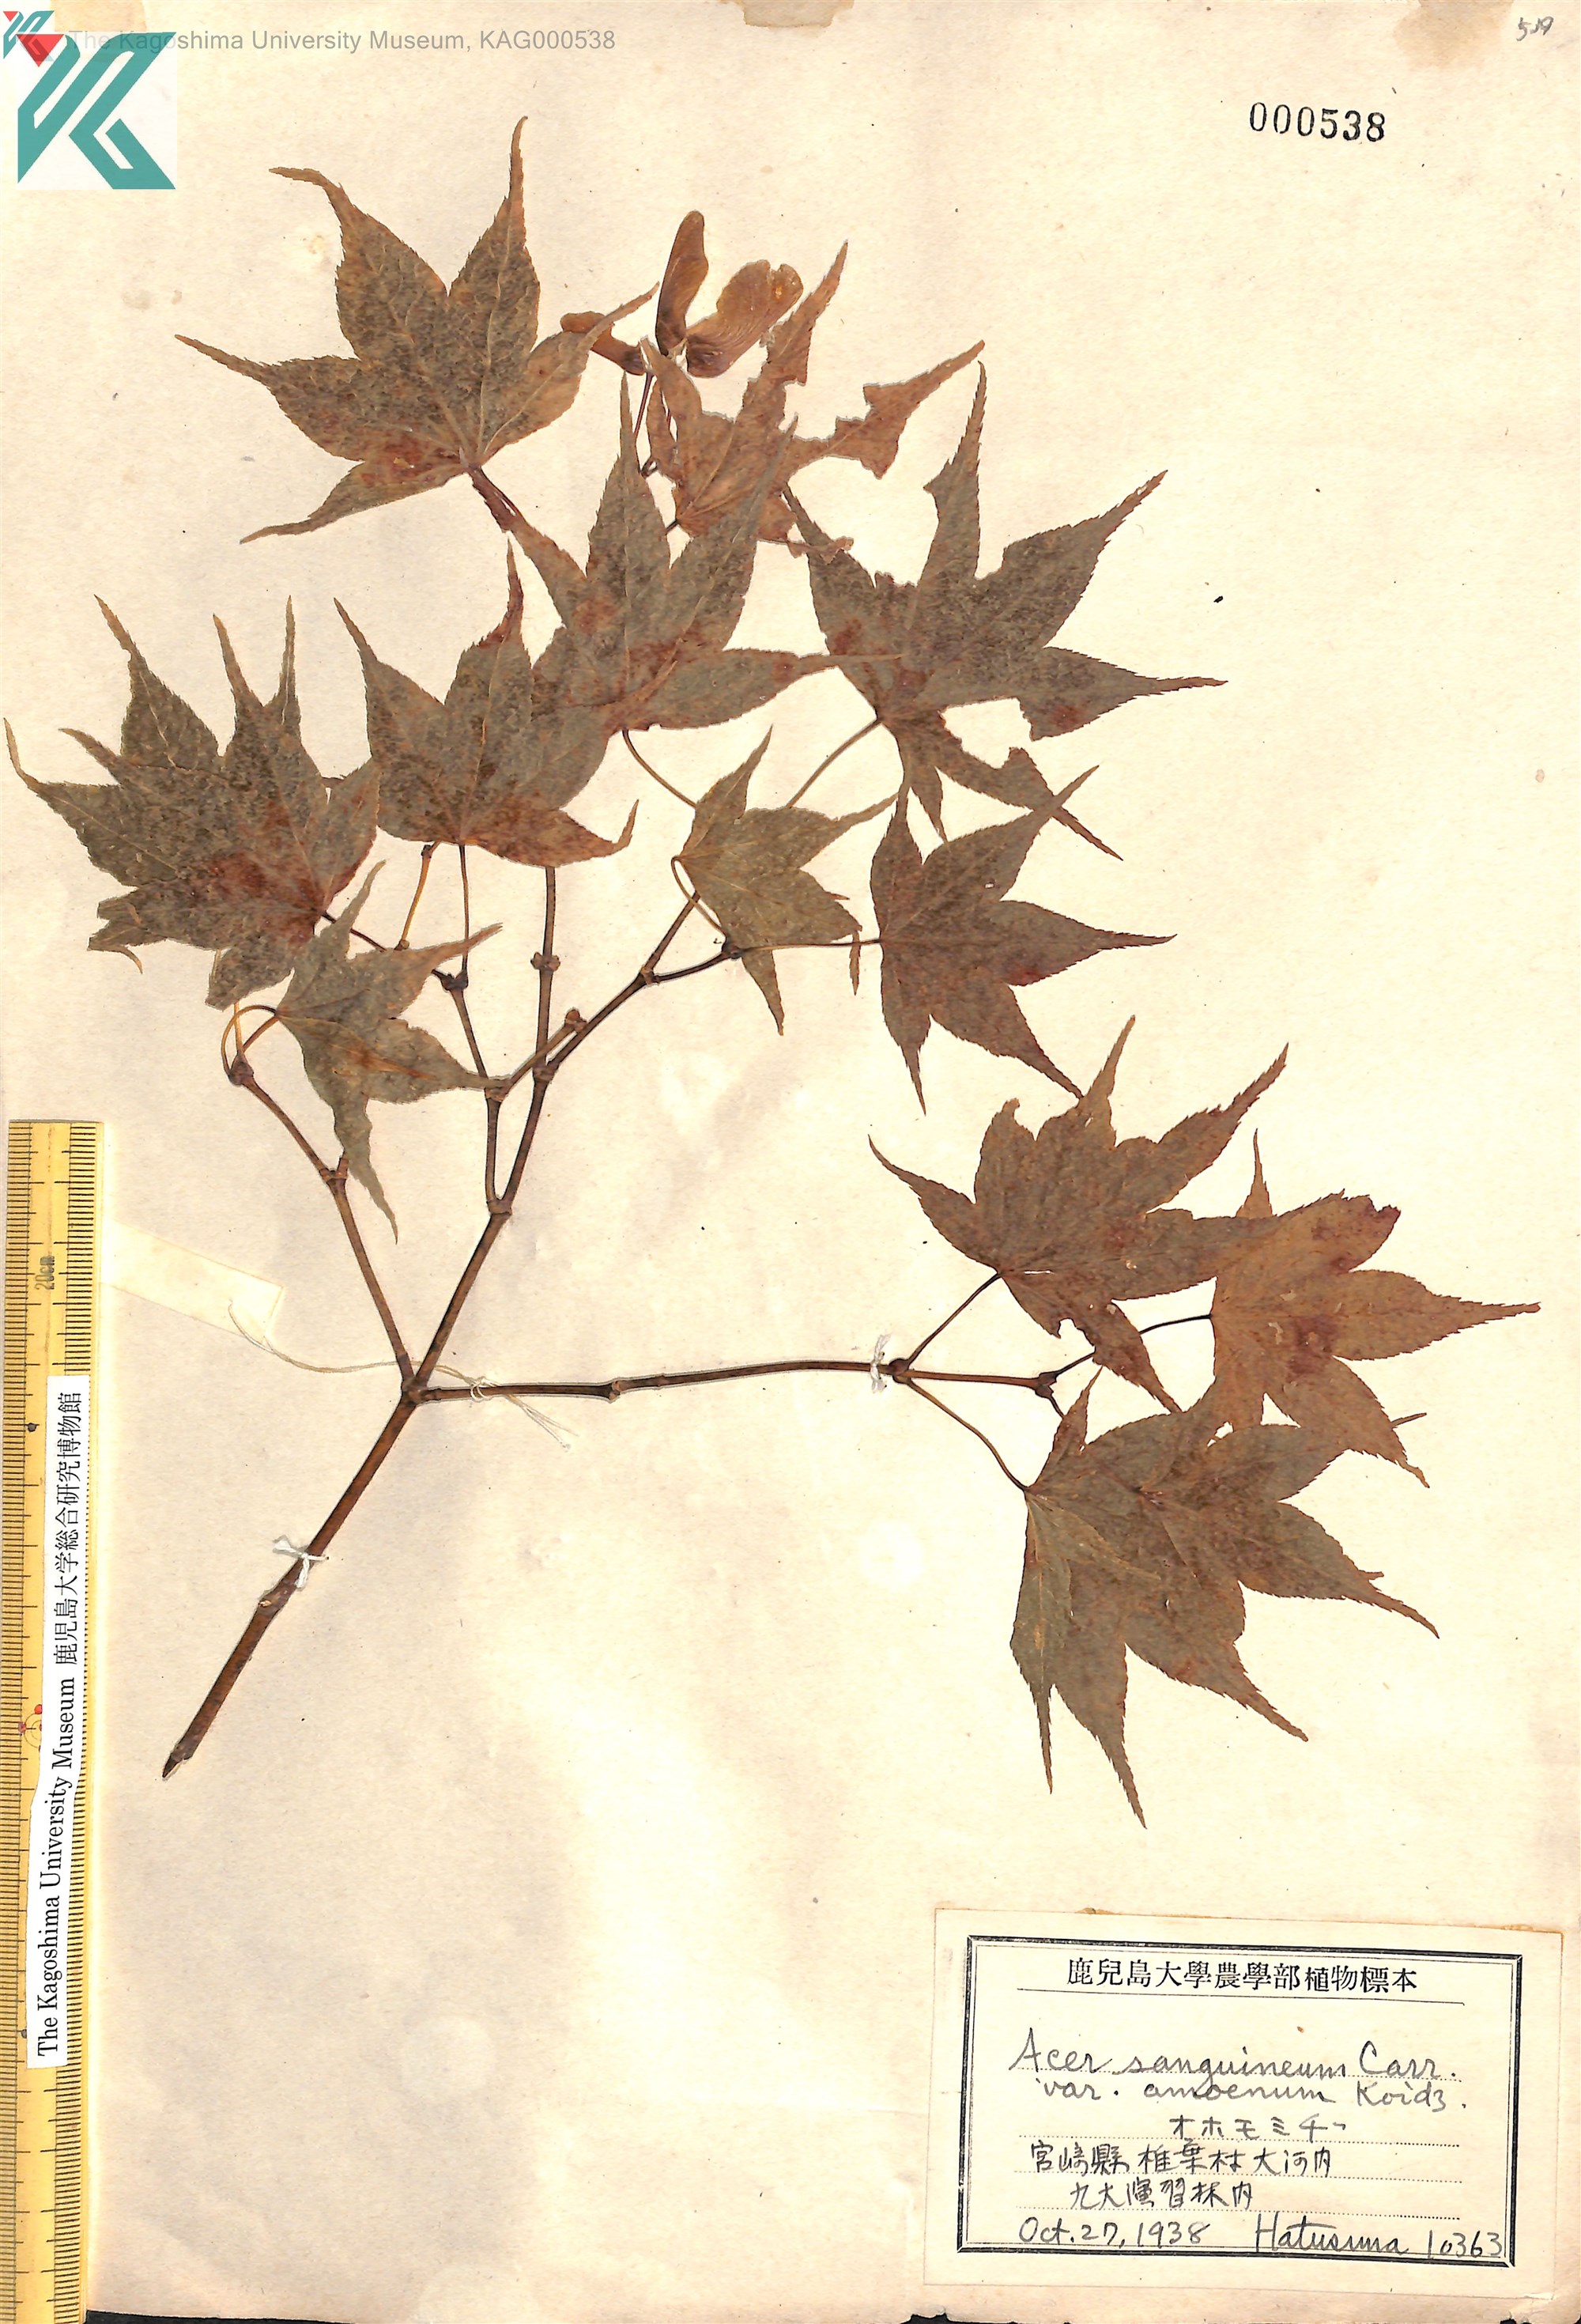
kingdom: Plantae
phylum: Tracheophyta
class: Magnoliopsida
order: Sapindales
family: Sapindaceae
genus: Acer
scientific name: Acer palmatum
